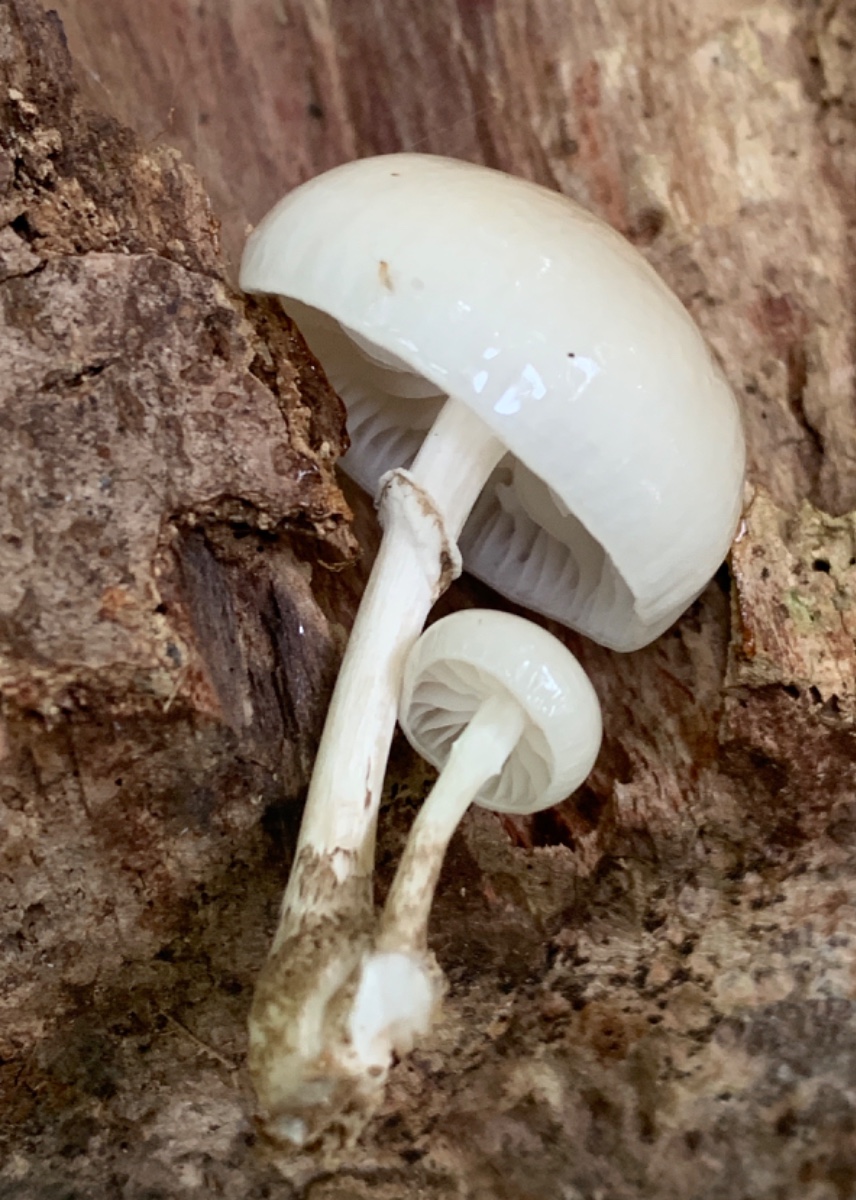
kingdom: Fungi
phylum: Basidiomycota
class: Agaricomycetes
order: Agaricales
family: Physalacriaceae
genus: Mucidula
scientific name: Mucidula mucida
